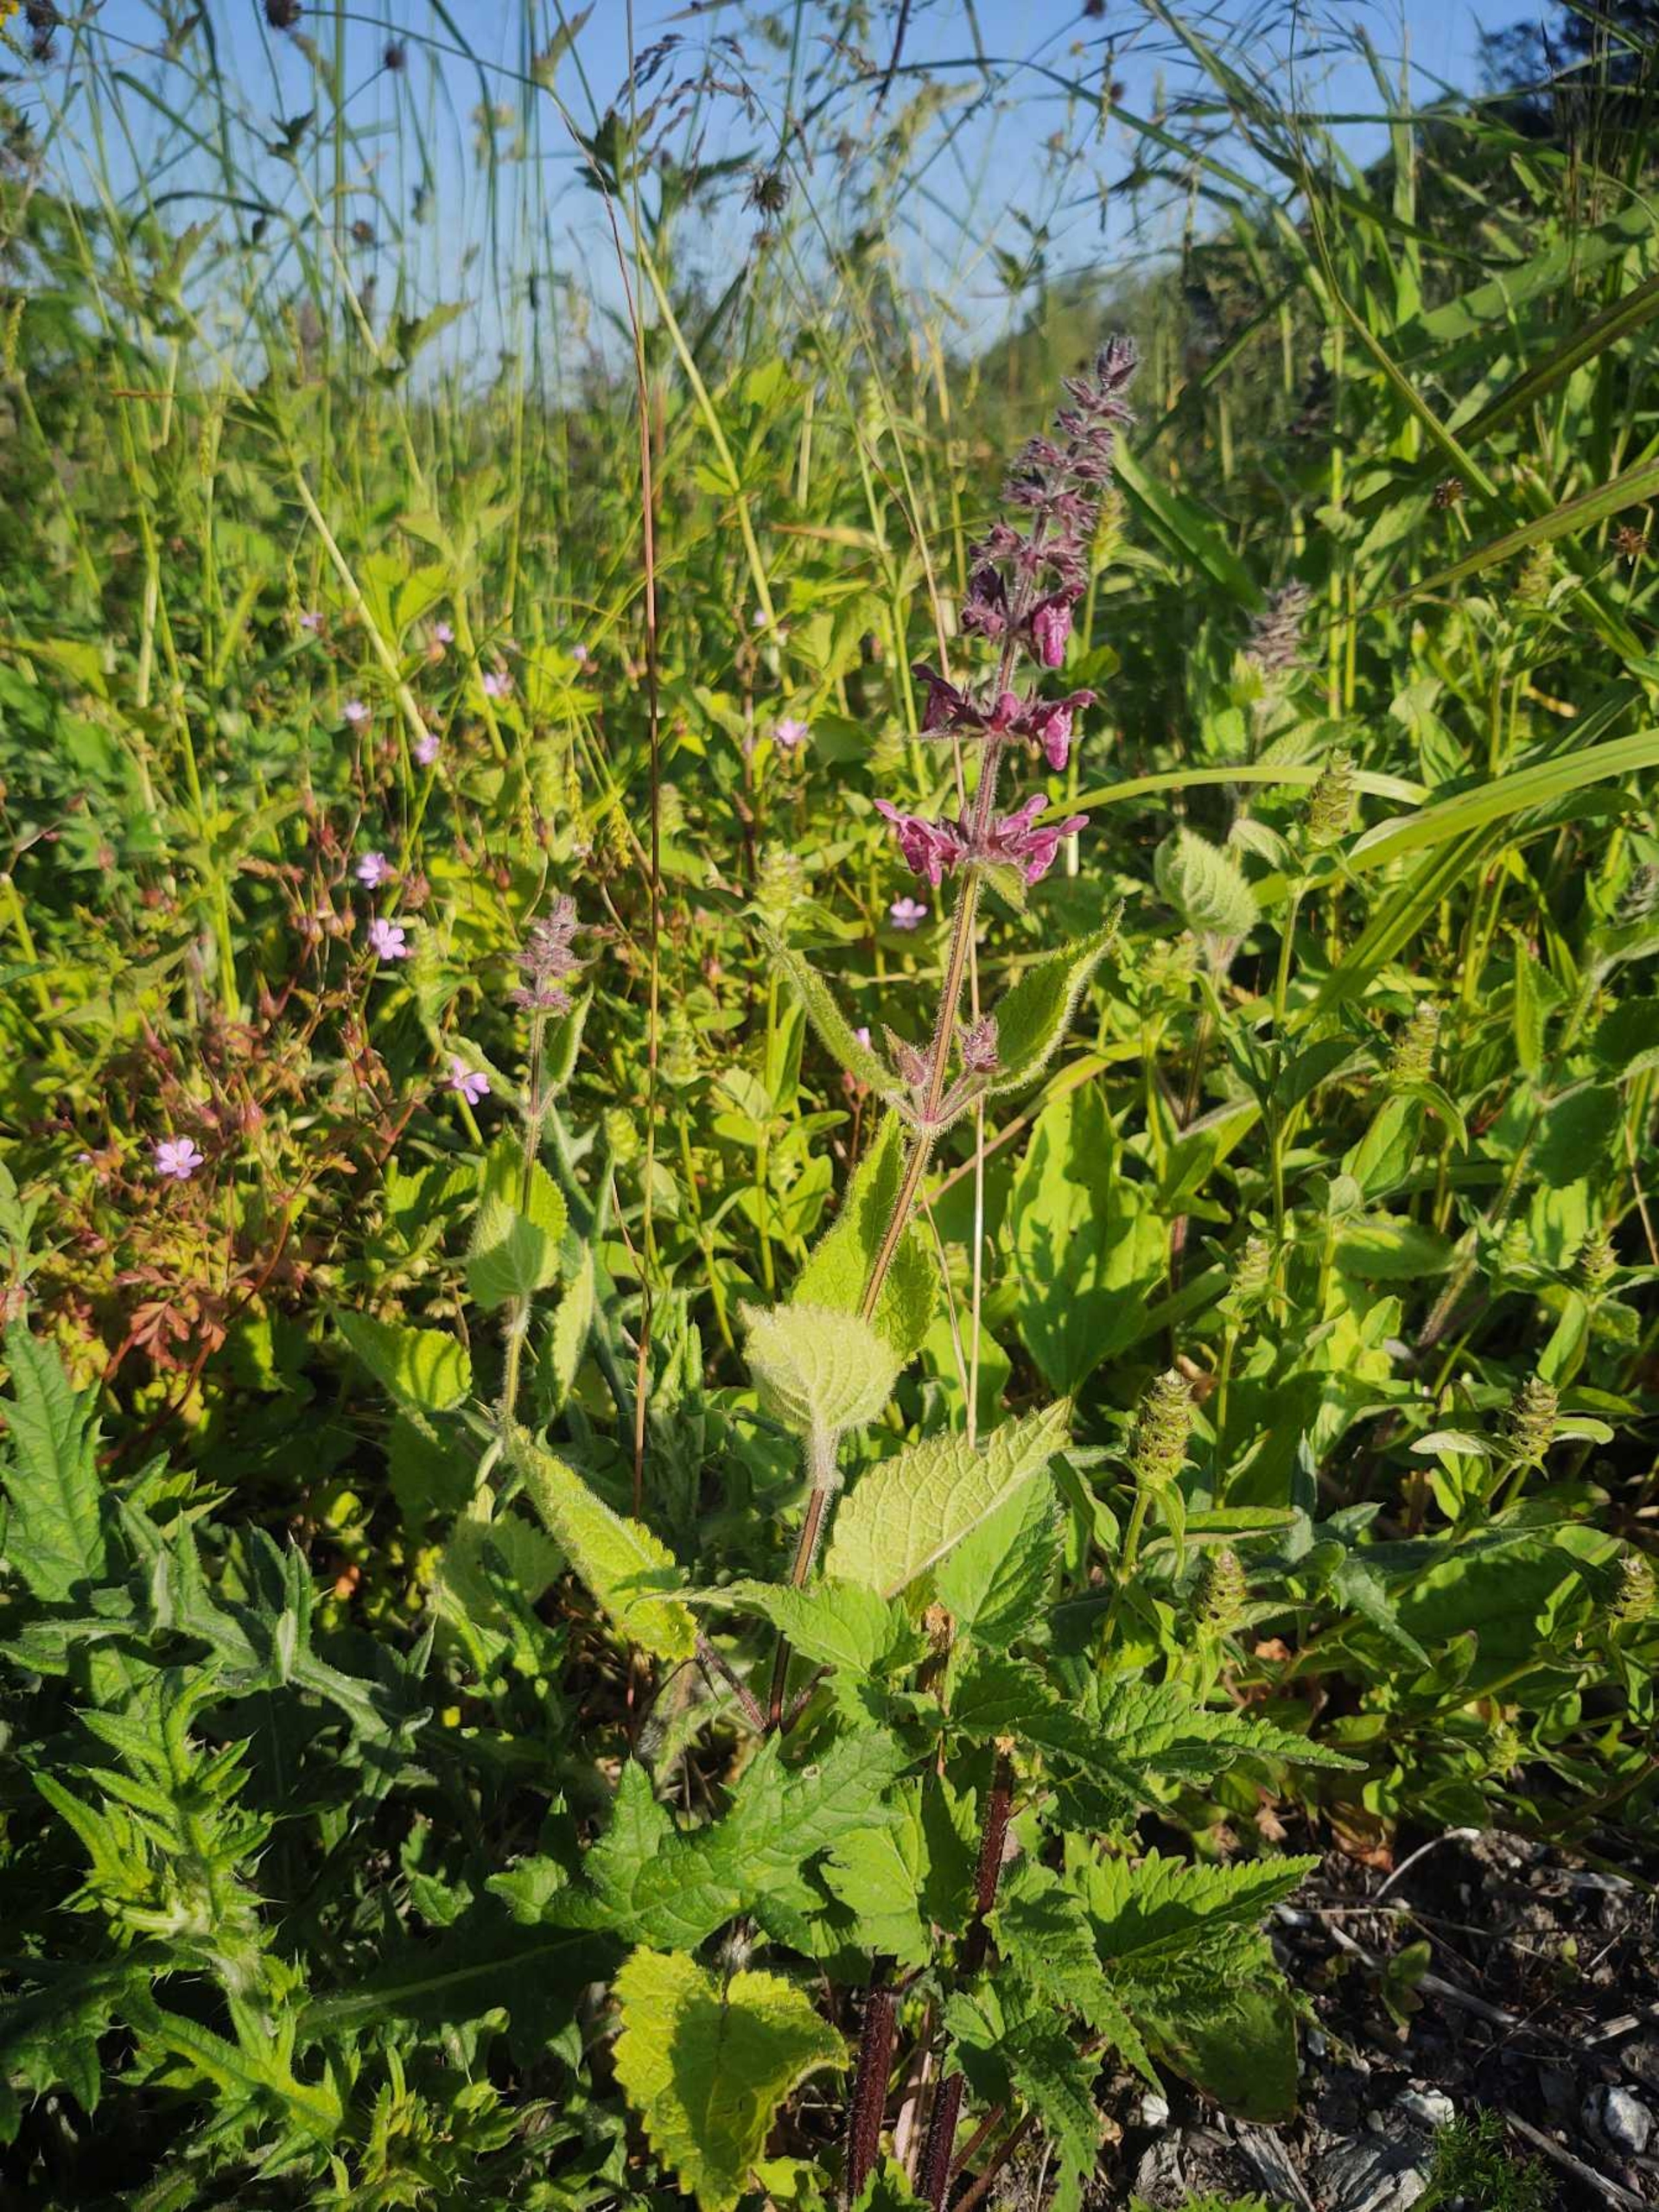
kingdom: Plantae
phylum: Tracheophyta
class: Magnoliopsida
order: Lamiales
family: Lamiaceae
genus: Stachys
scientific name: Stachys sylvatica
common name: Skov-galtetand
